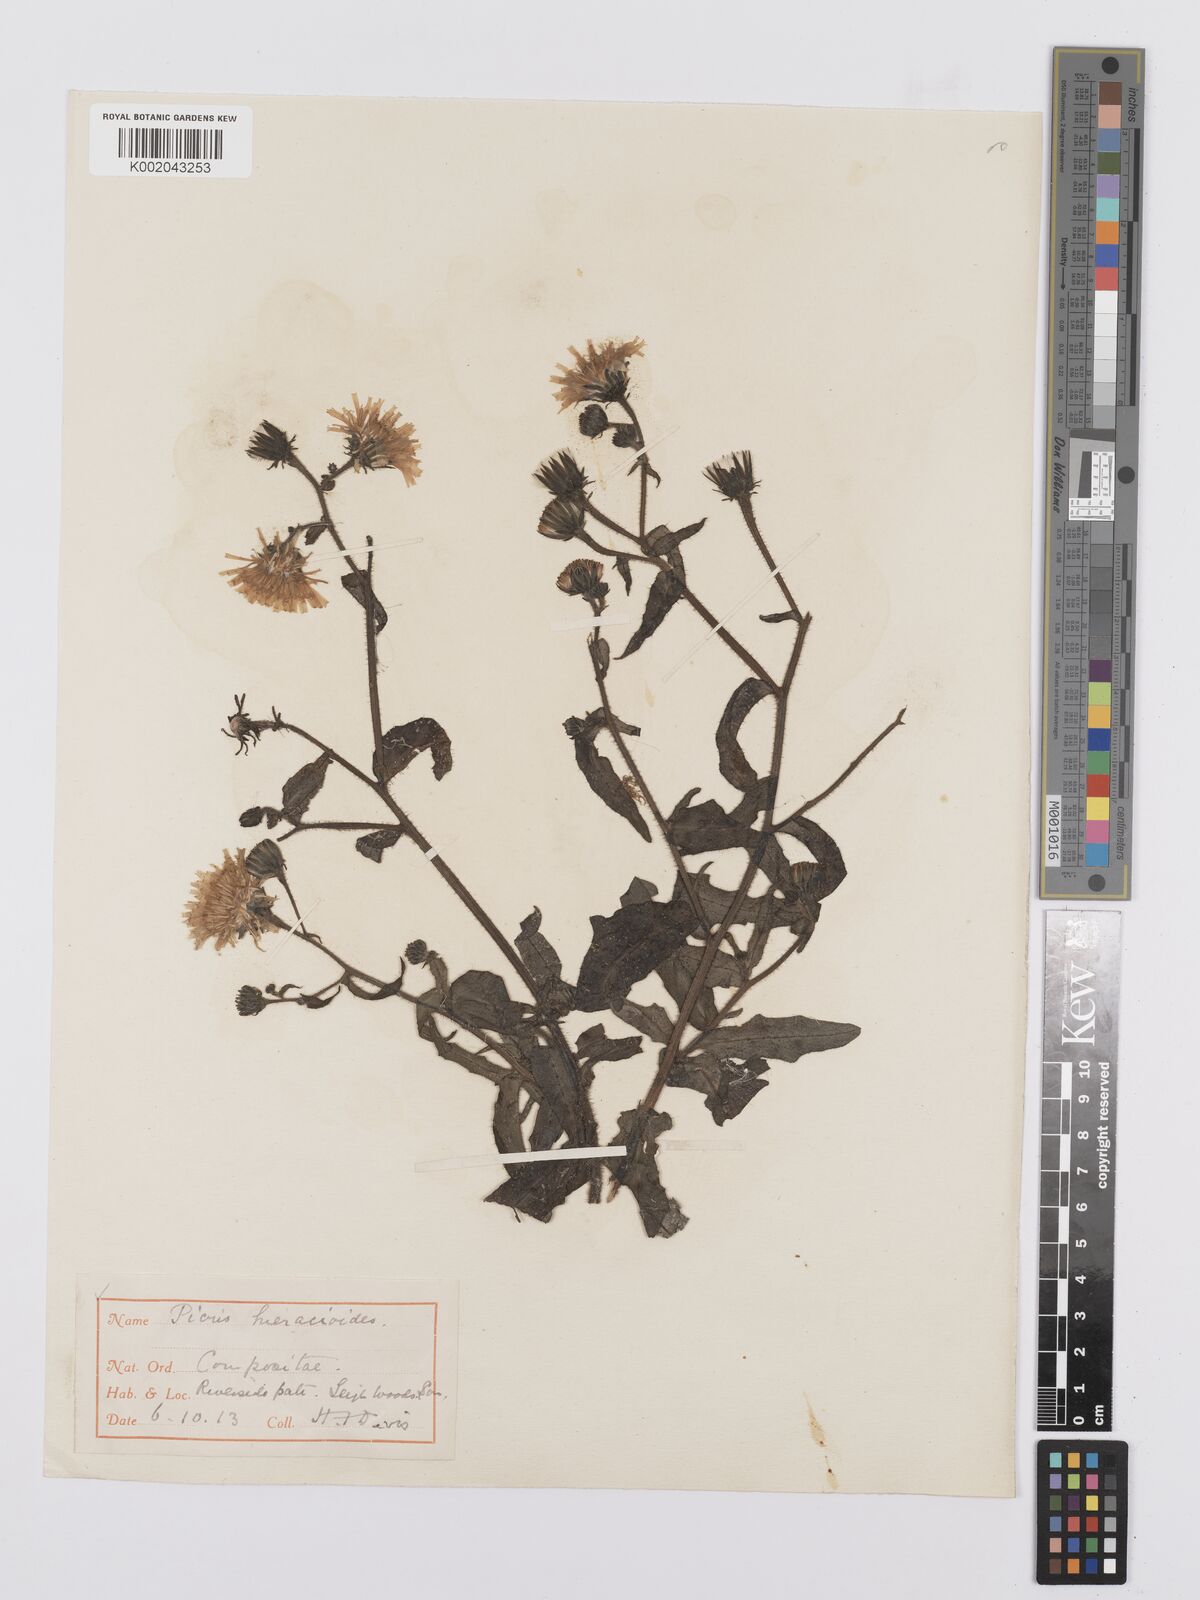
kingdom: Plantae
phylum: Tracheophyta
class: Magnoliopsida
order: Asterales
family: Asteraceae
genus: Picris
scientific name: Picris hieracioides
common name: Hawkweed oxtongue
